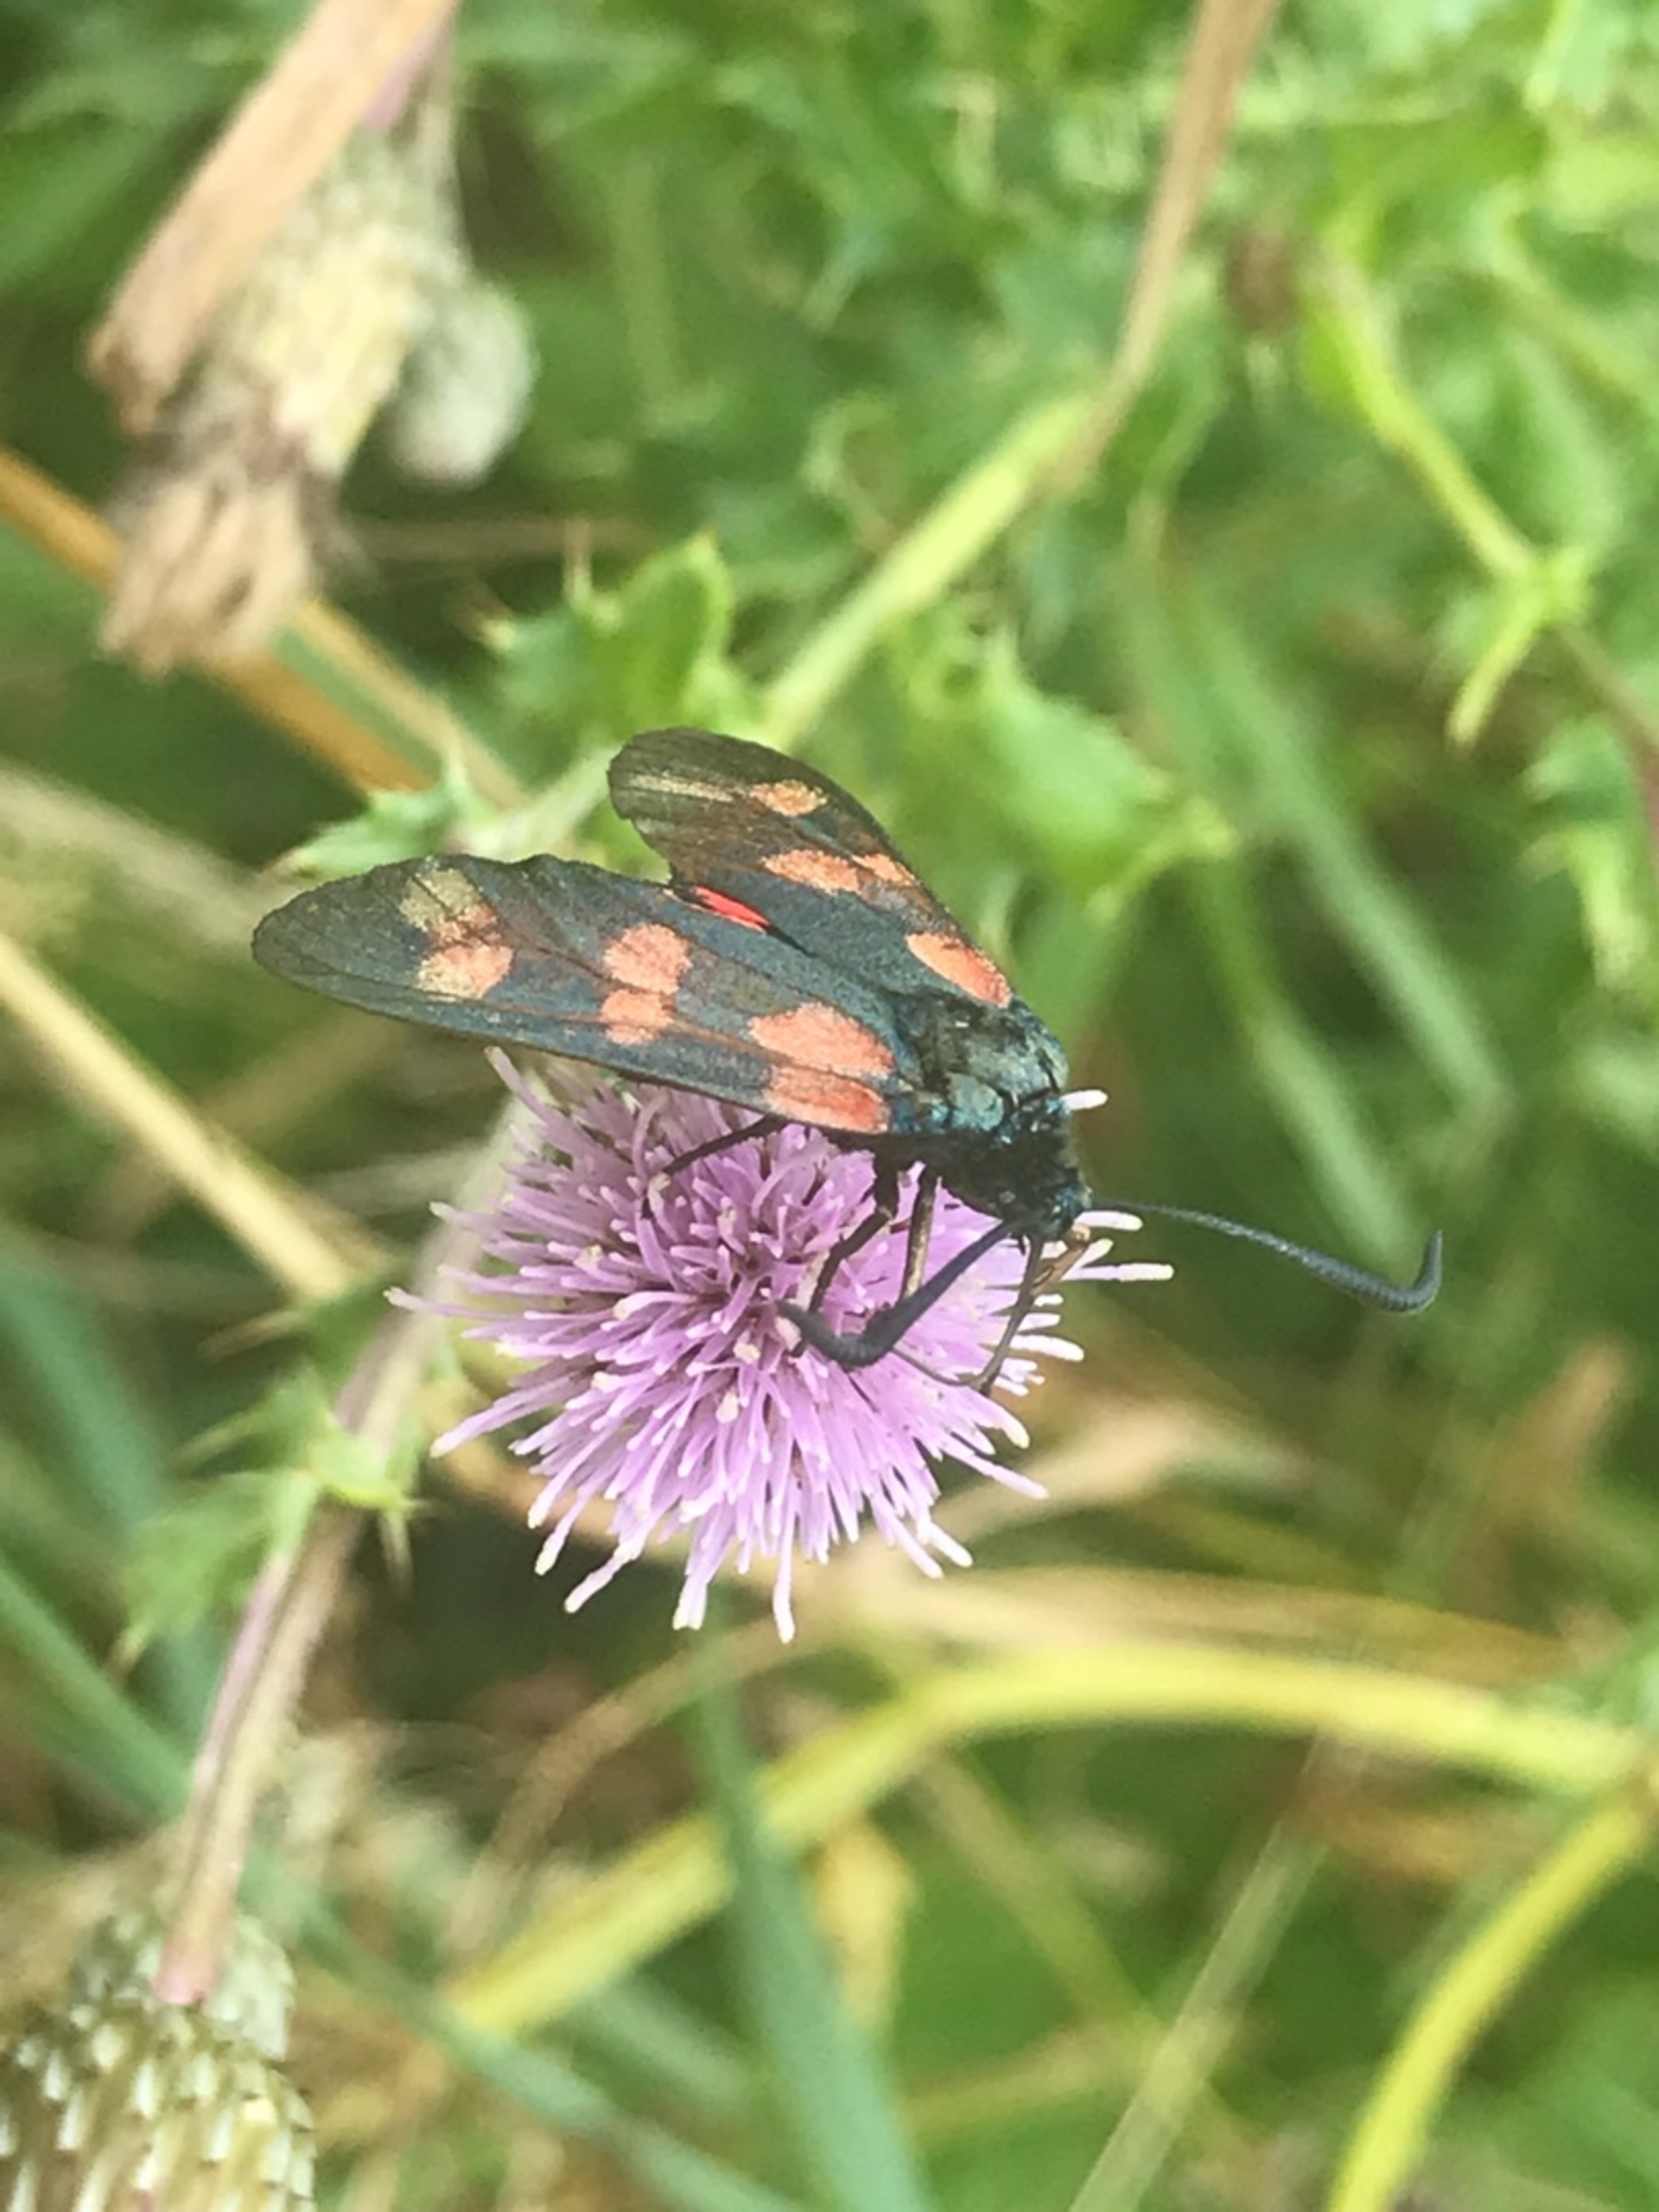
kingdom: Animalia
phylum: Arthropoda
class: Insecta
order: Lepidoptera
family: Zygaenidae
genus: Zygaena
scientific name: Zygaena filipendulae
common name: Seksplettet køllesværmer
